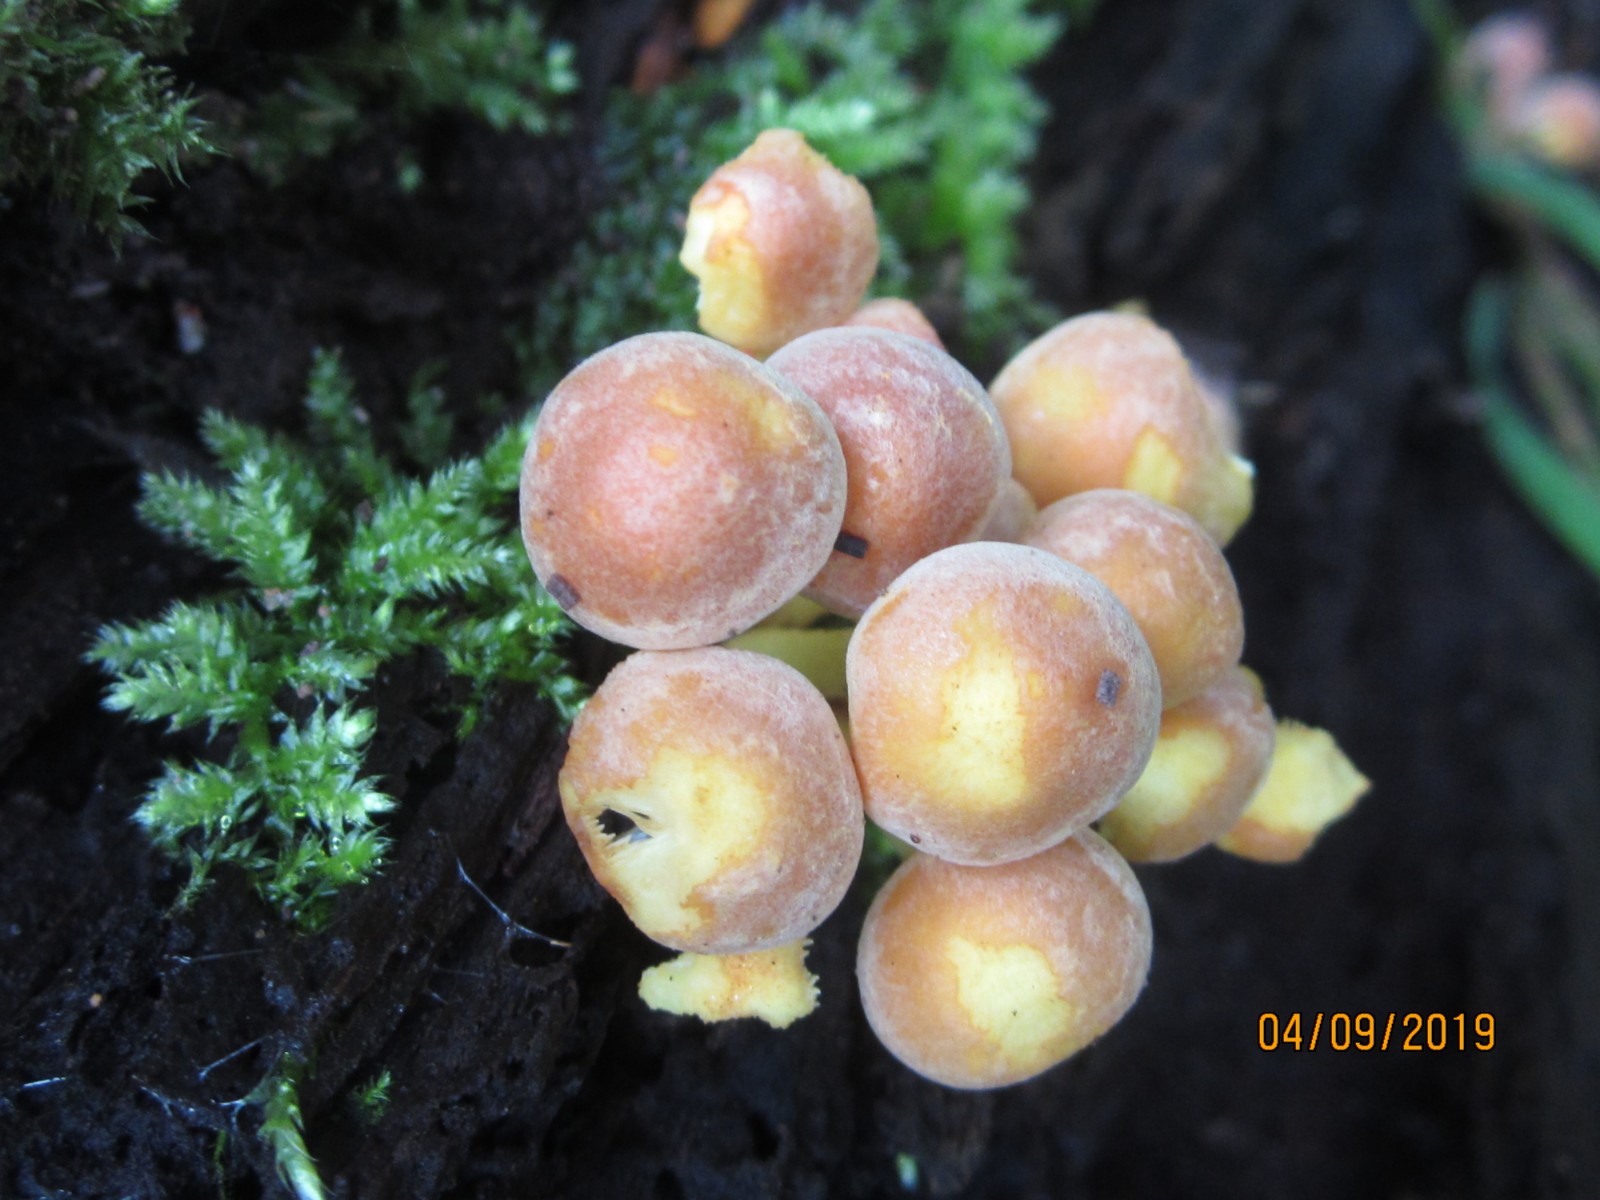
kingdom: Fungi
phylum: Basidiomycota
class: Agaricomycetes
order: Agaricales
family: Strophariaceae
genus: Hypholoma
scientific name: Hypholoma fasciculare
